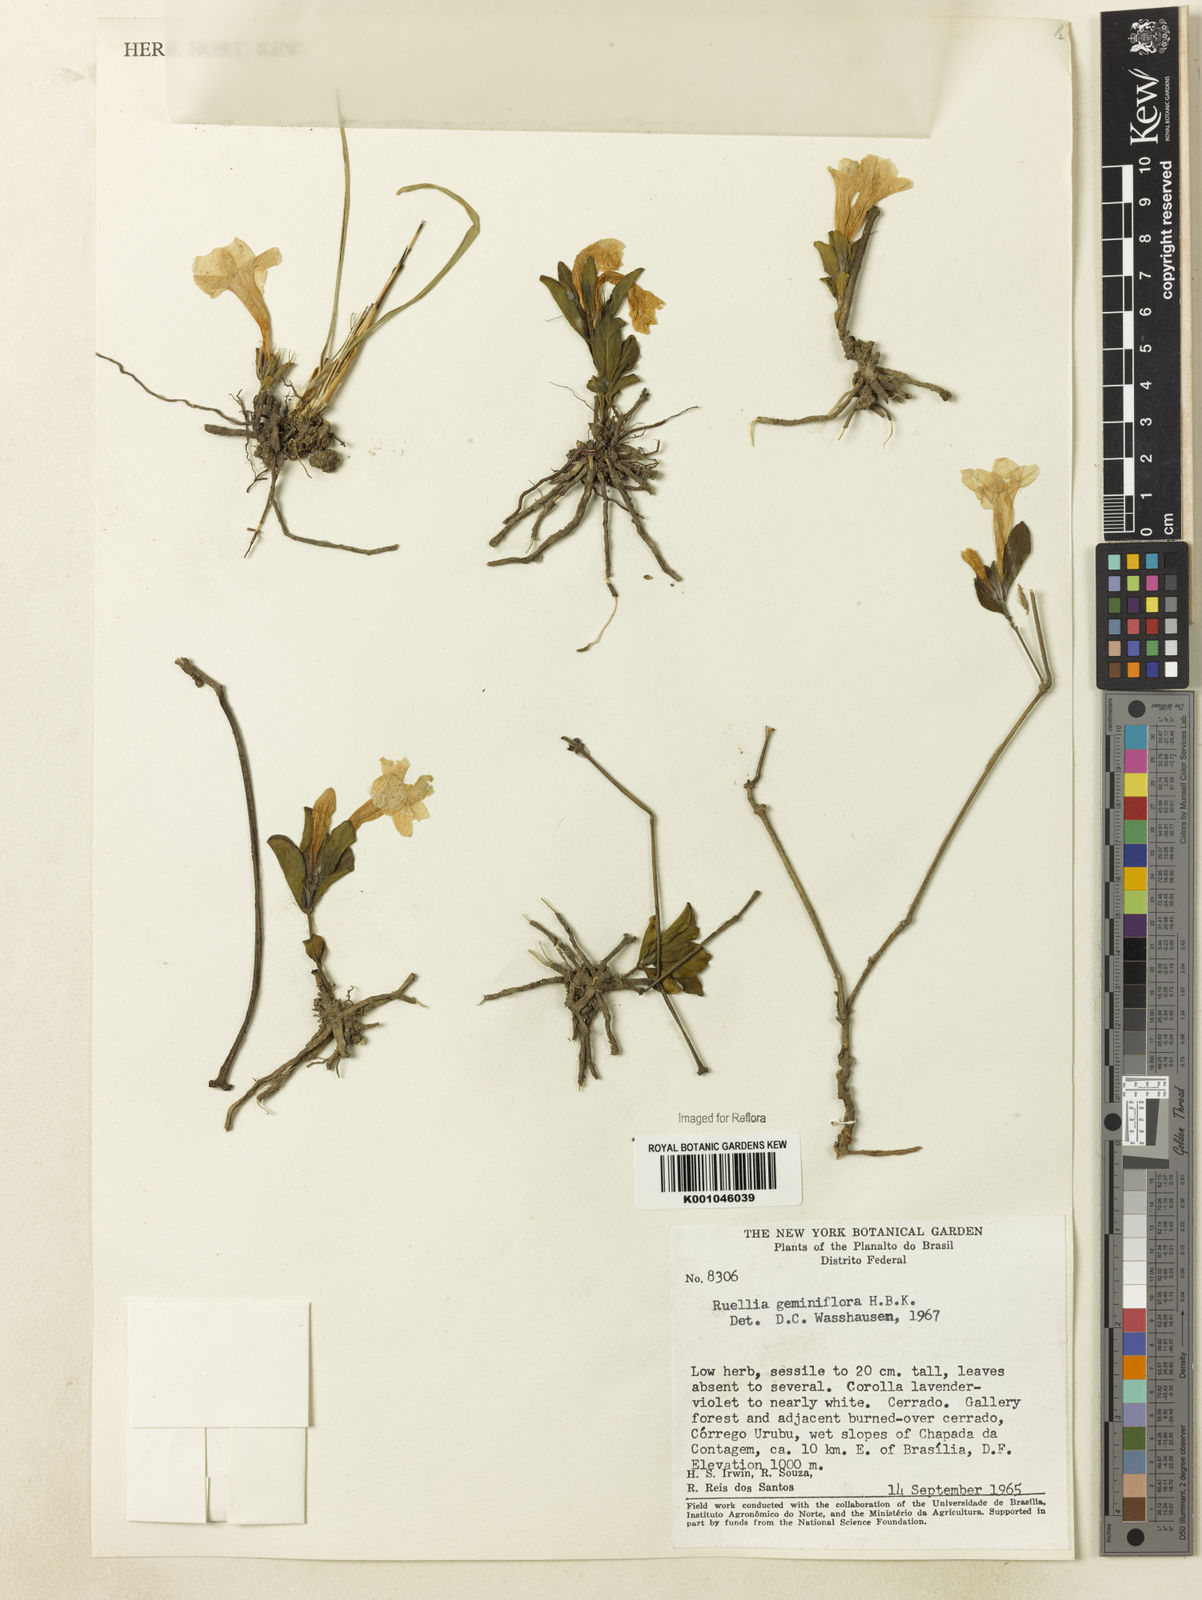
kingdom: Plantae
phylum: Tracheophyta
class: Magnoliopsida
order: Lamiales
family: Acanthaceae
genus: Ruellia
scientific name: Ruellia geminiflora
